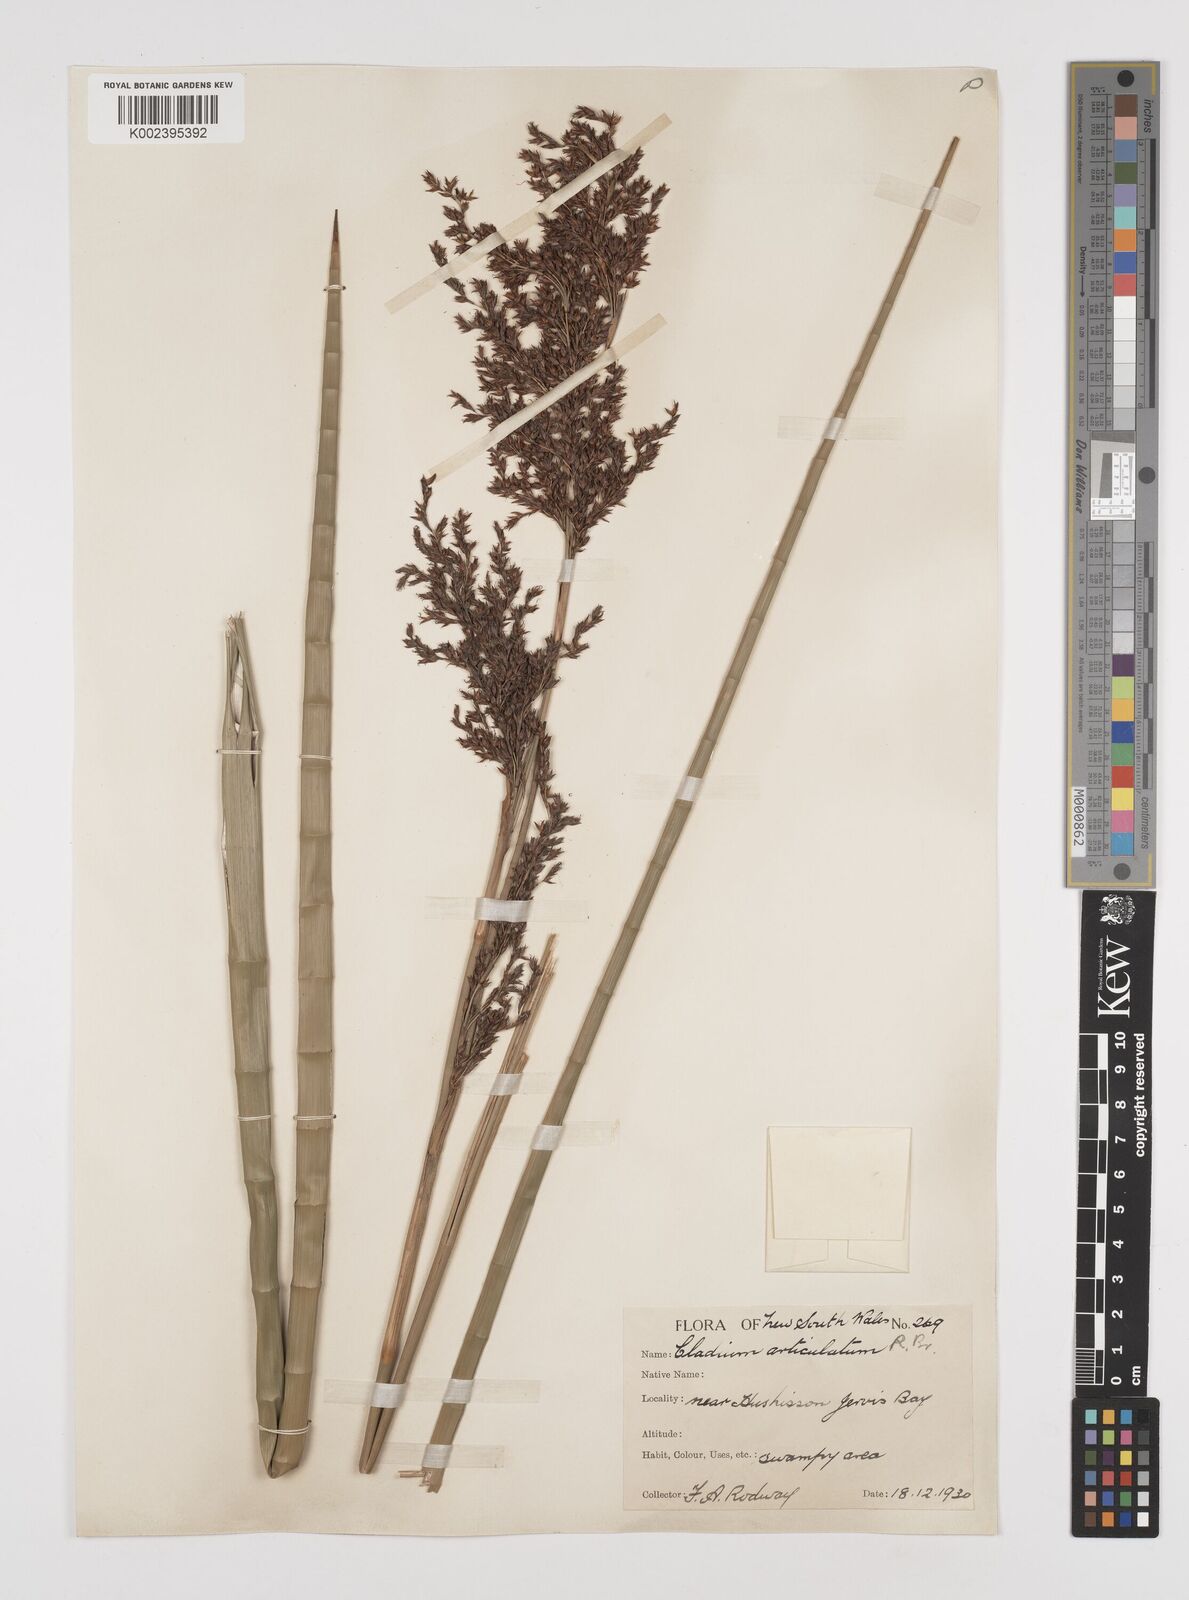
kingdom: Plantae
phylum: Tracheophyta
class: Liliopsida
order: Poales
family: Cyperaceae
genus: Machaerina
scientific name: Machaerina articulata
